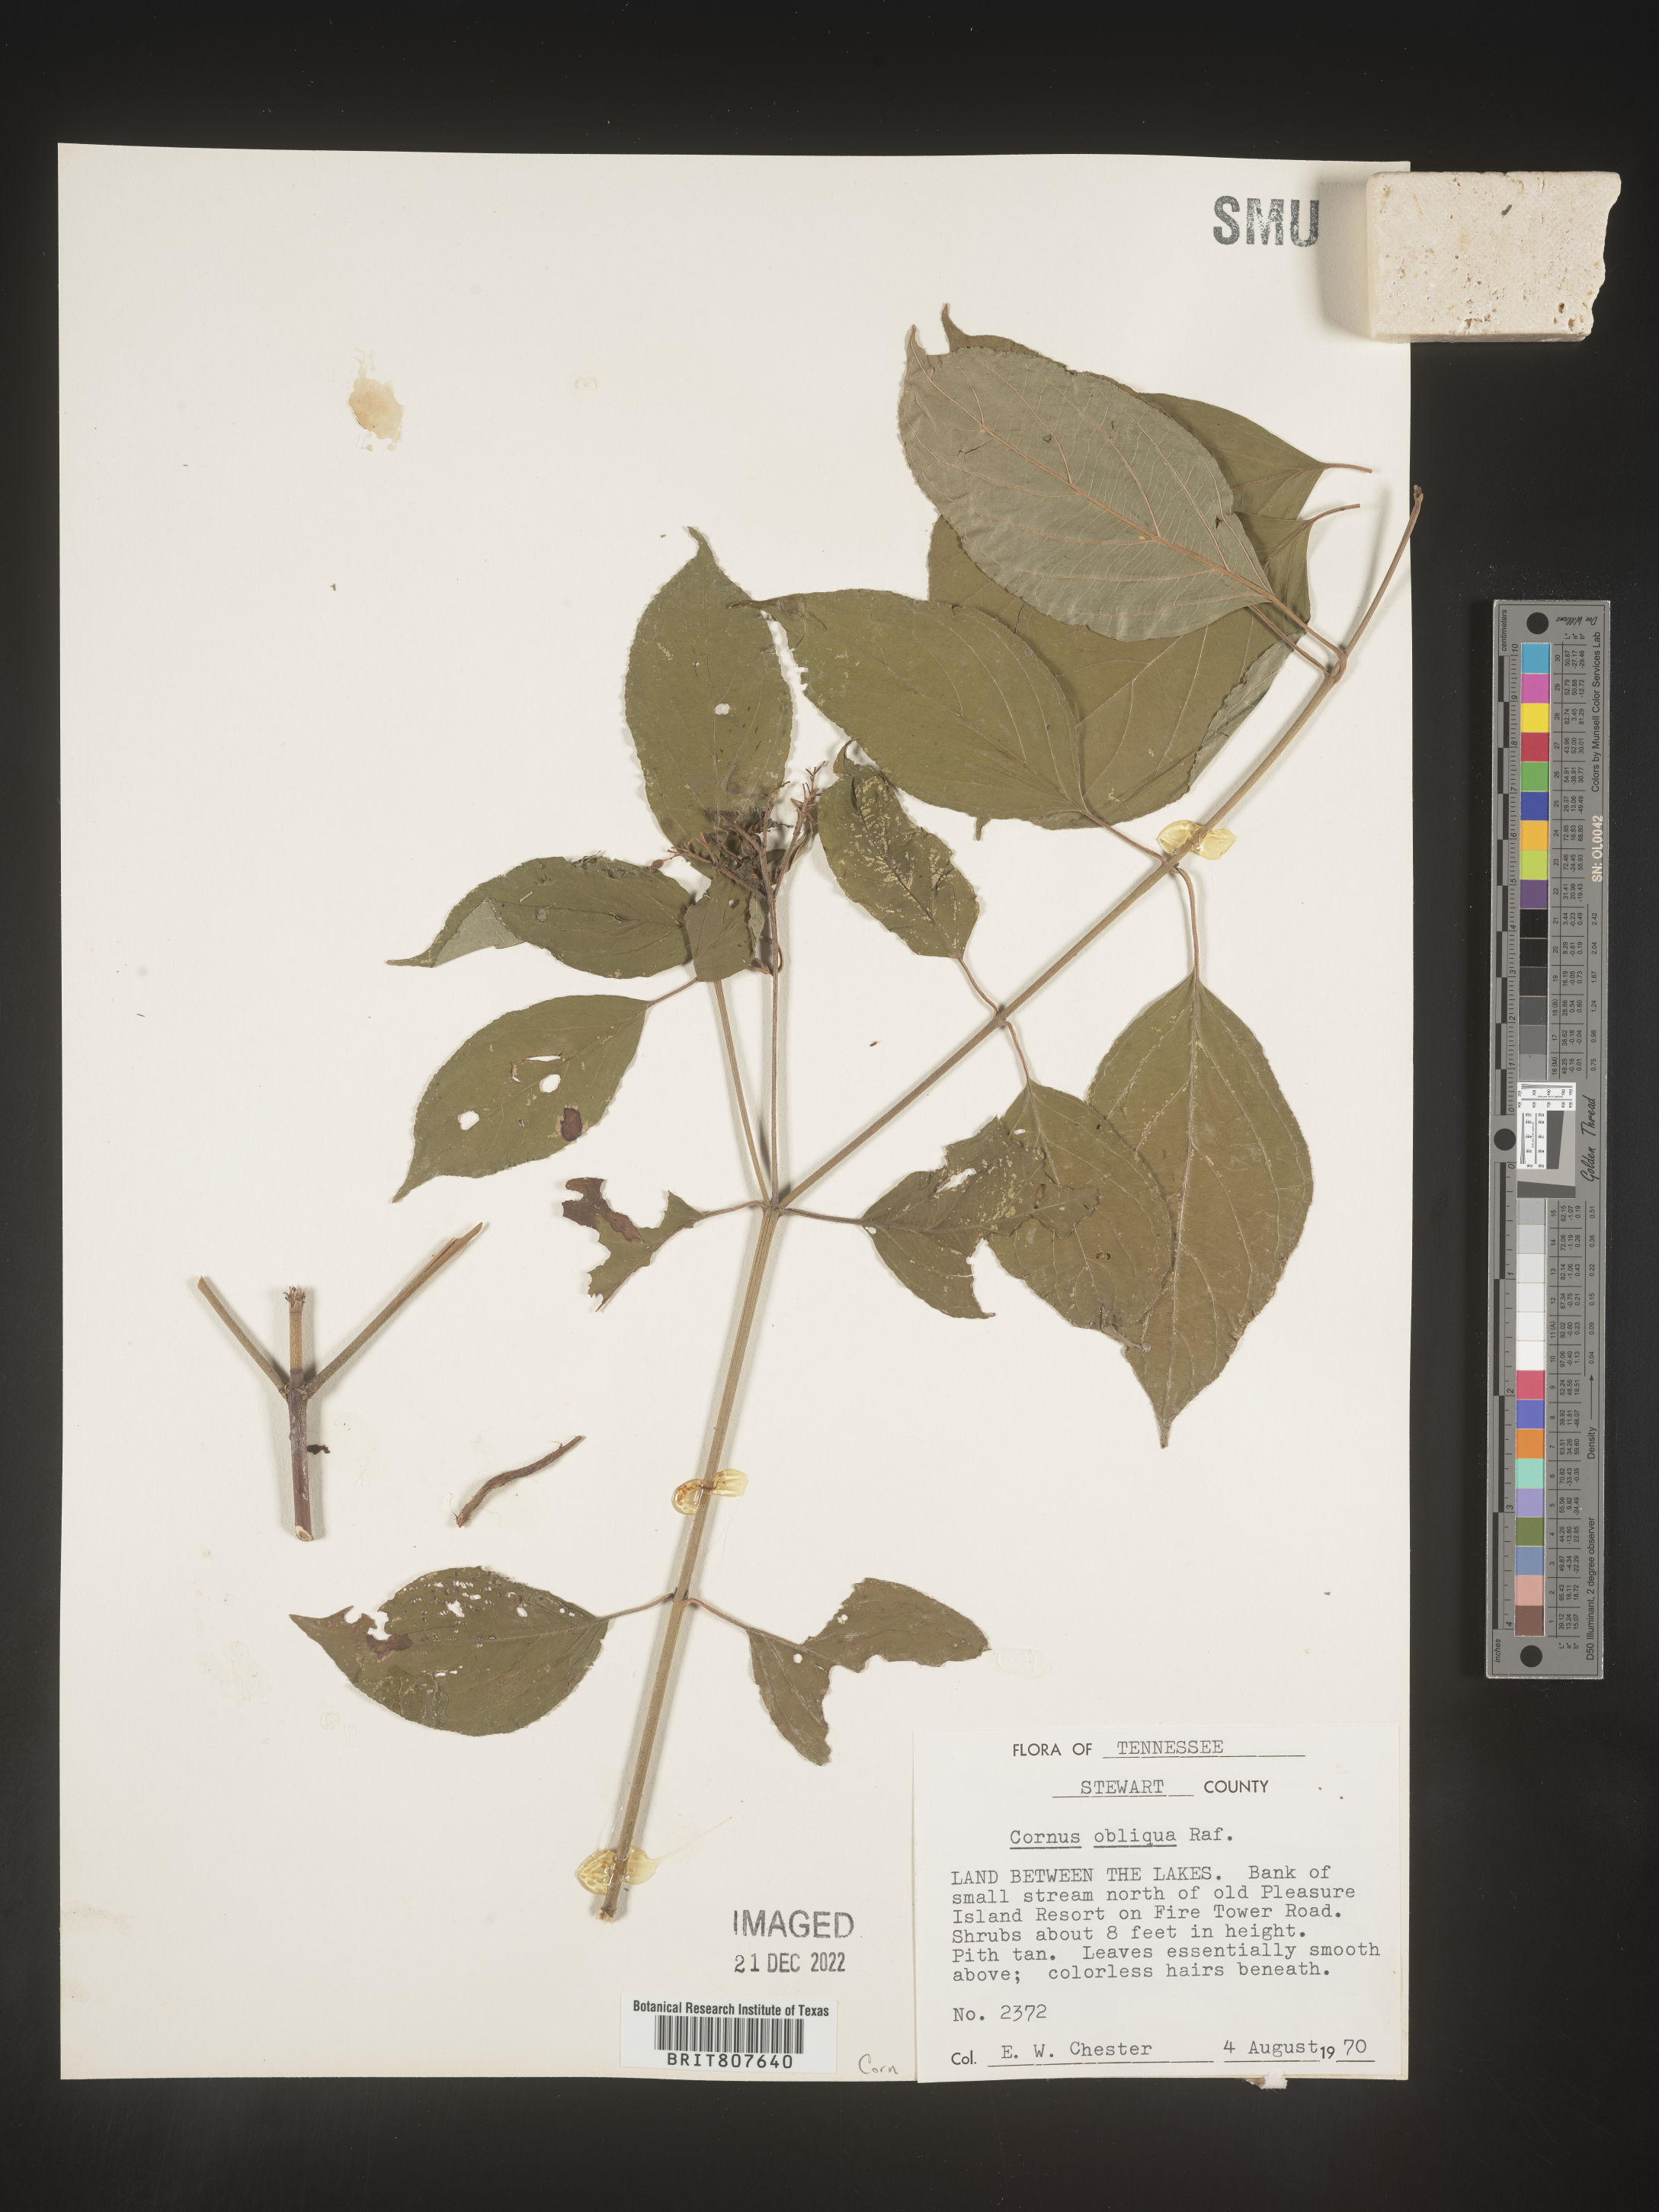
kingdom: Plantae
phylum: Tracheophyta
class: Magnoliopsida
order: Cornales
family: Cornaceae
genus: Cornus
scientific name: Cornus obliqua
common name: Pale dogwood
